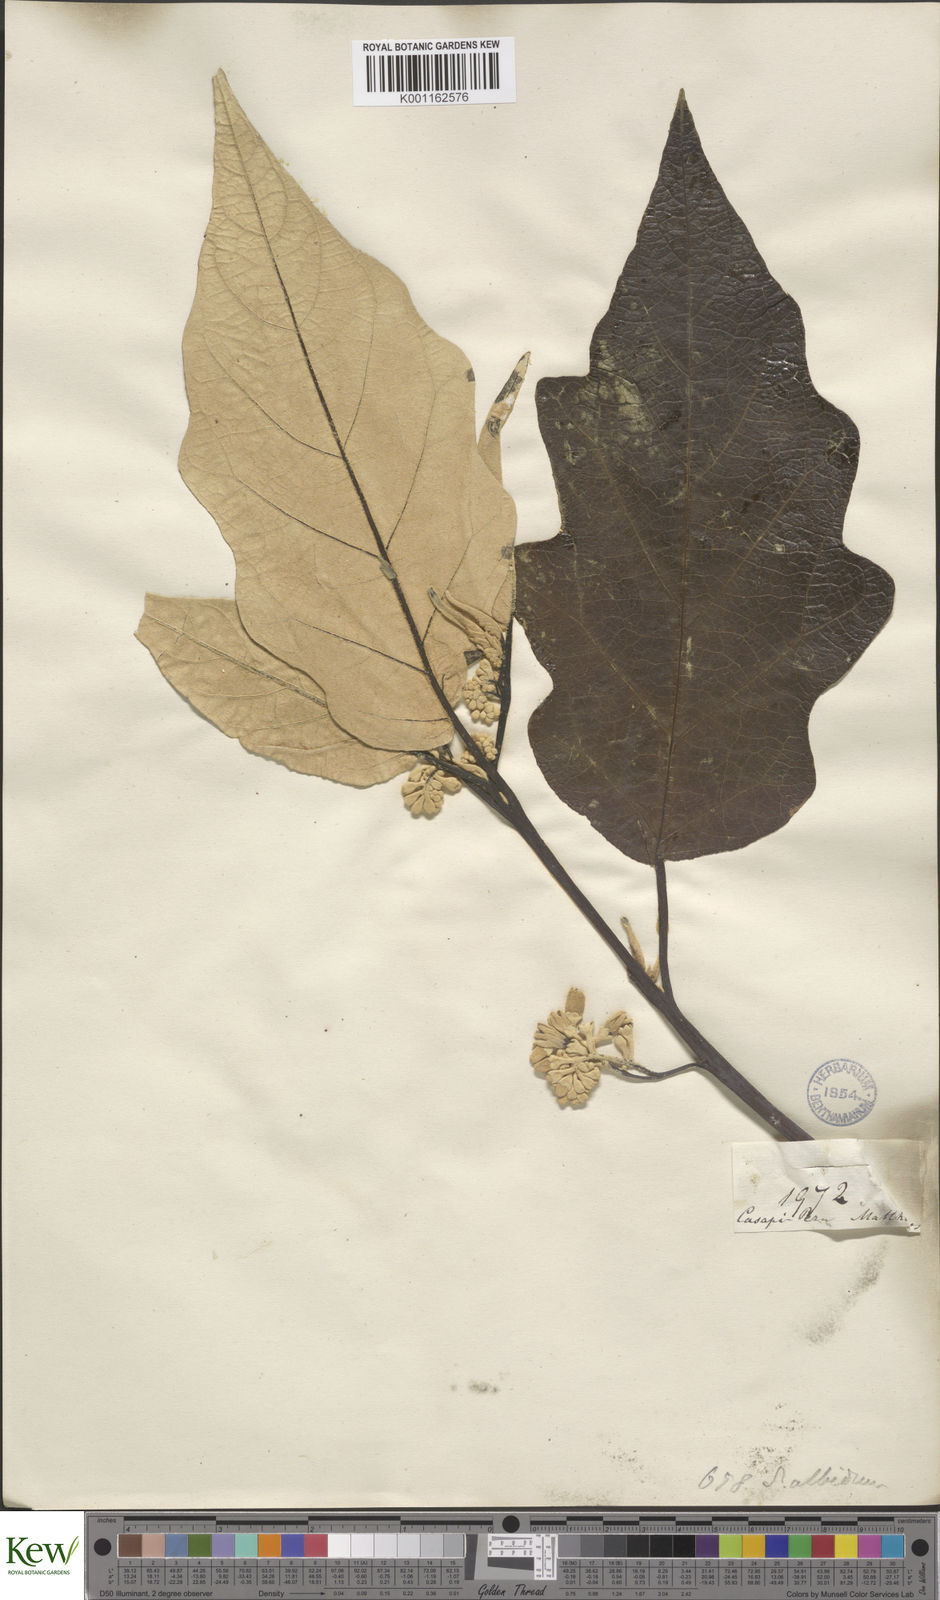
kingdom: Plantae
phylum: Tracheophyta
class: Magnoliopsida
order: Solanales
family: Solanaceae
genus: Solanum
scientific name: Solanum albidum
